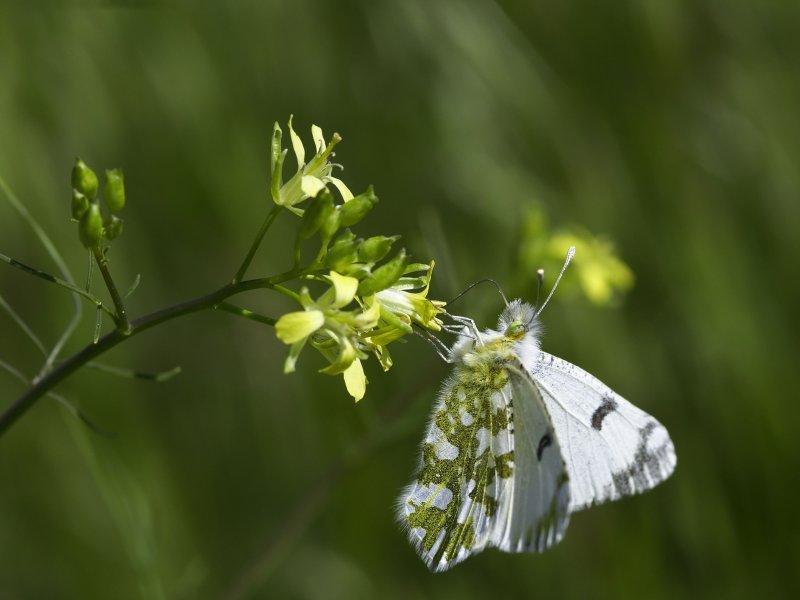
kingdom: Animalia
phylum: Arthropoda
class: Insecta
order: Lepidoptera
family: Pieridae
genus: Euchloe
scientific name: Euchloe ausonides
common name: Large Marble
